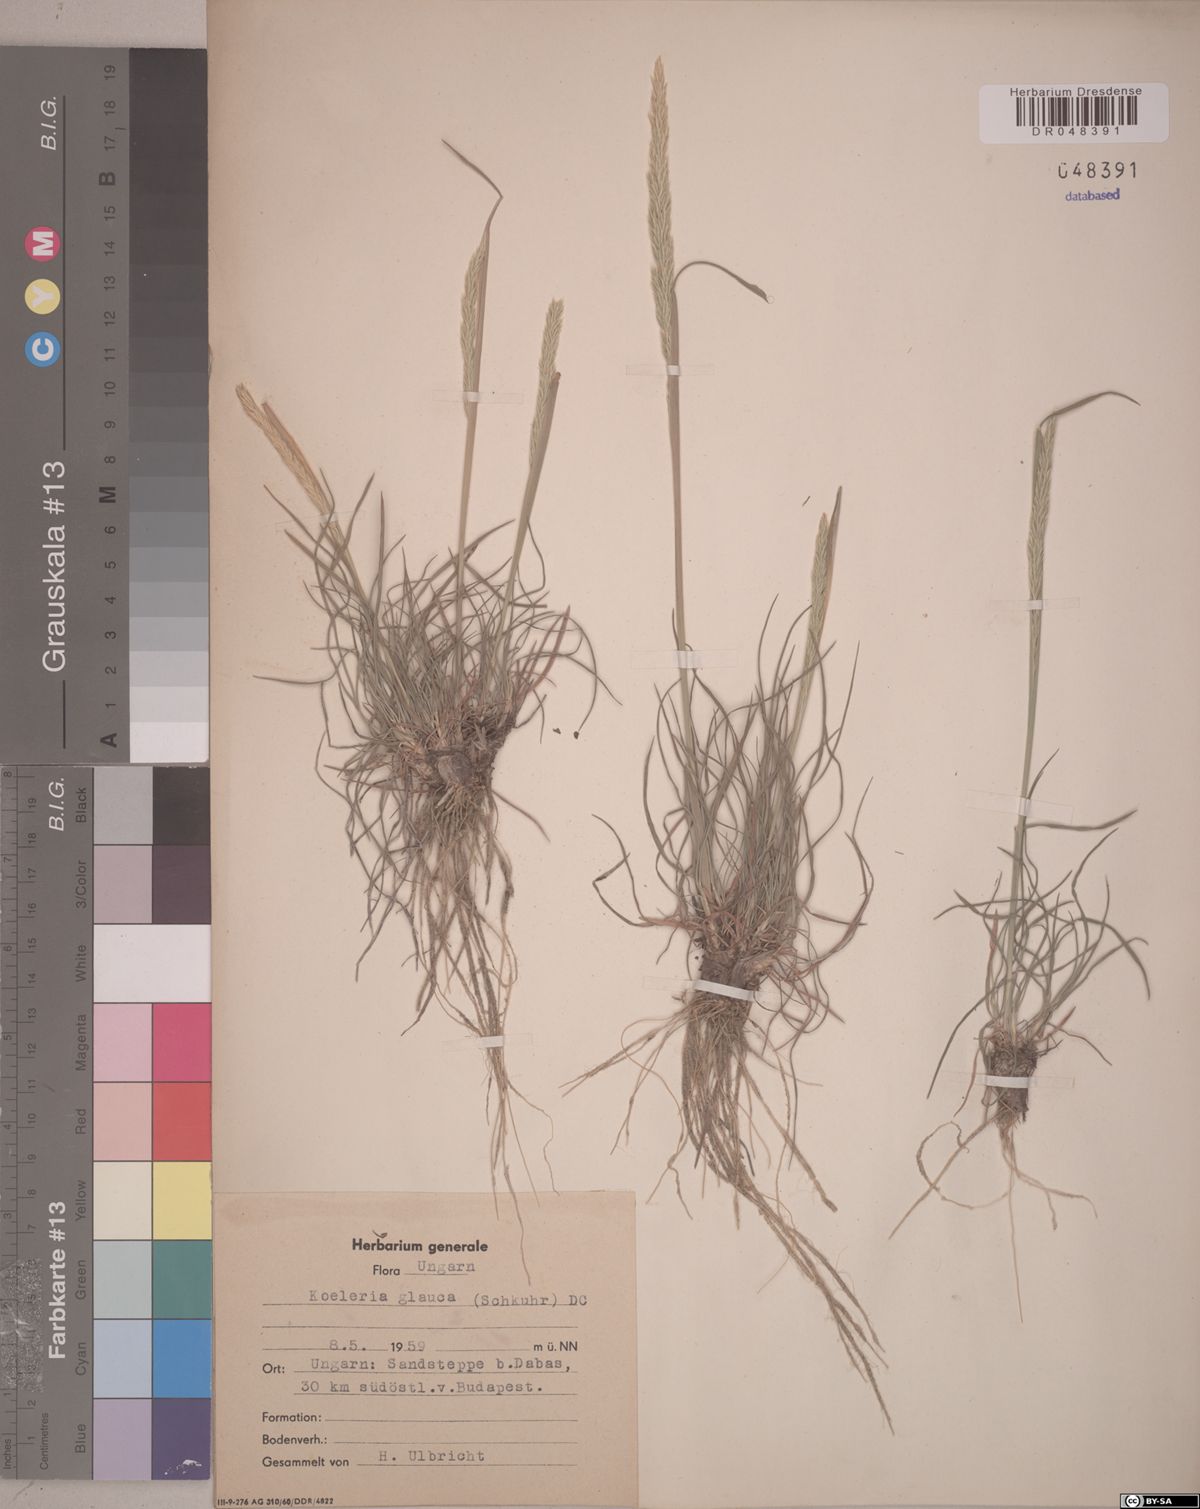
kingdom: Plantae
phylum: Tracheophyta
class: Liliopsida
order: Poales
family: Poaceae
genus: Koeleria
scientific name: Koeleria glauca
